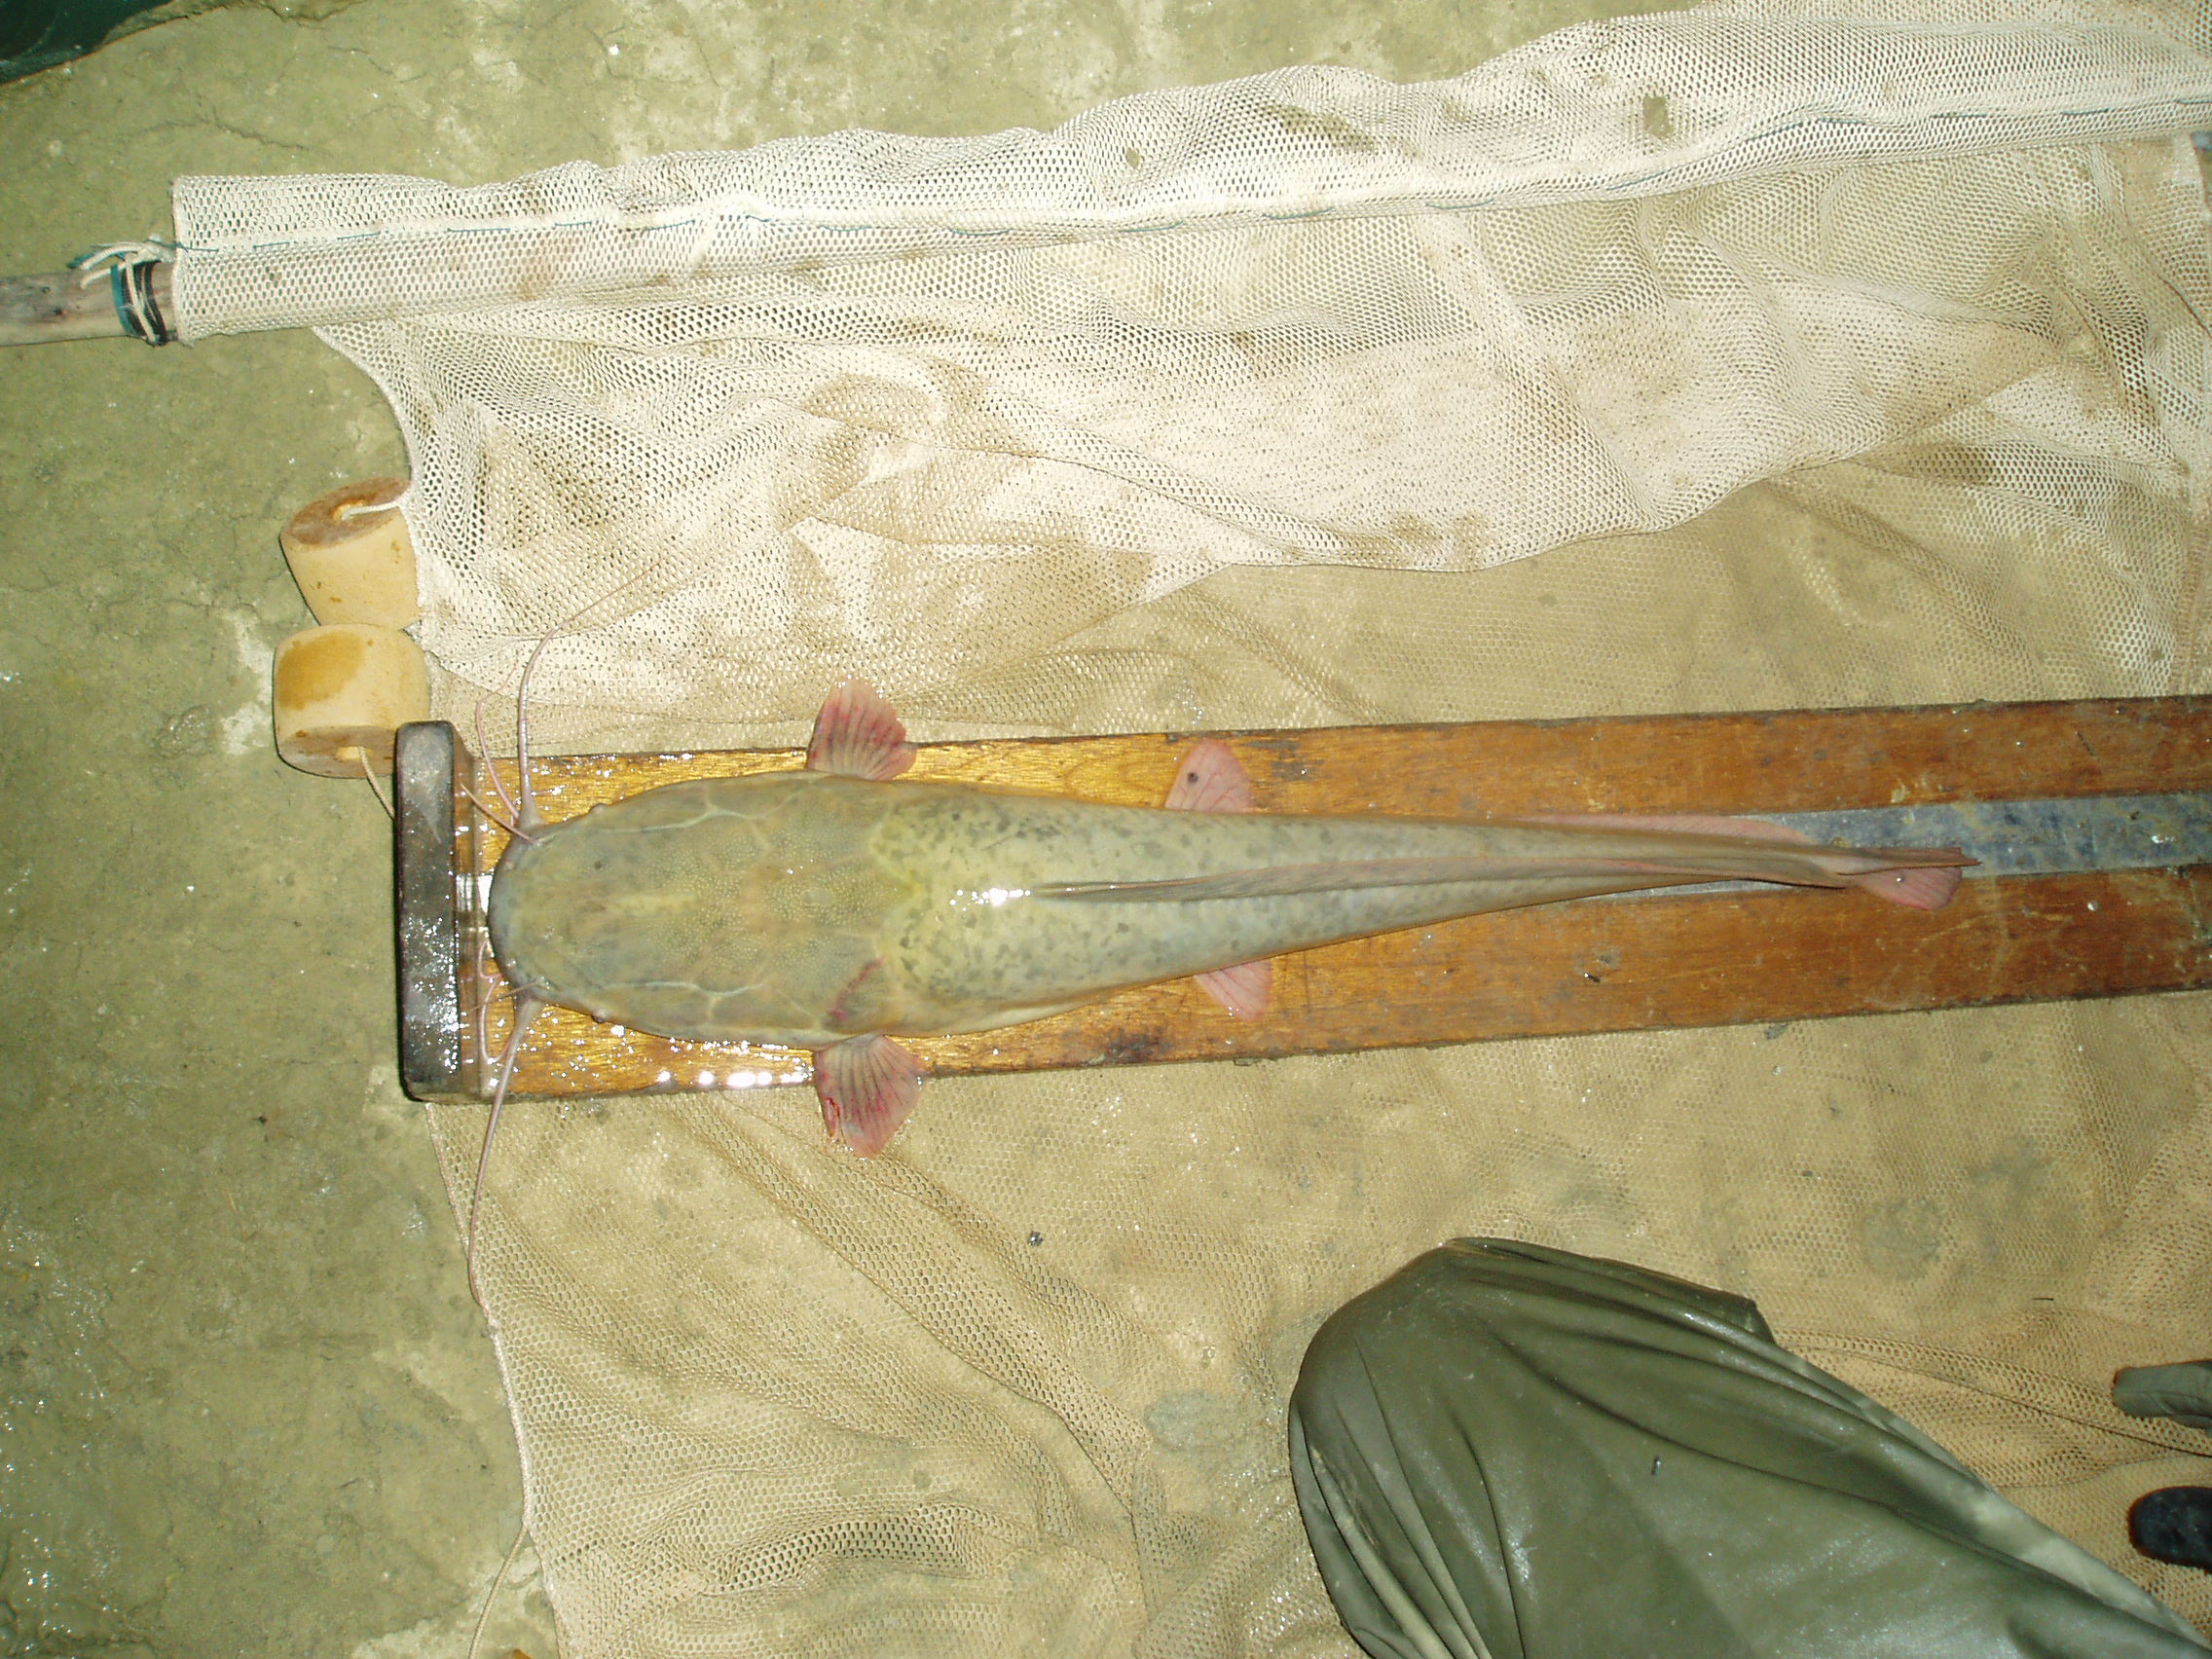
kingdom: Animalia
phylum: Chordata
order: Siluriformes
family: Clariidae
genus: Clarias
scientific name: Clarias
